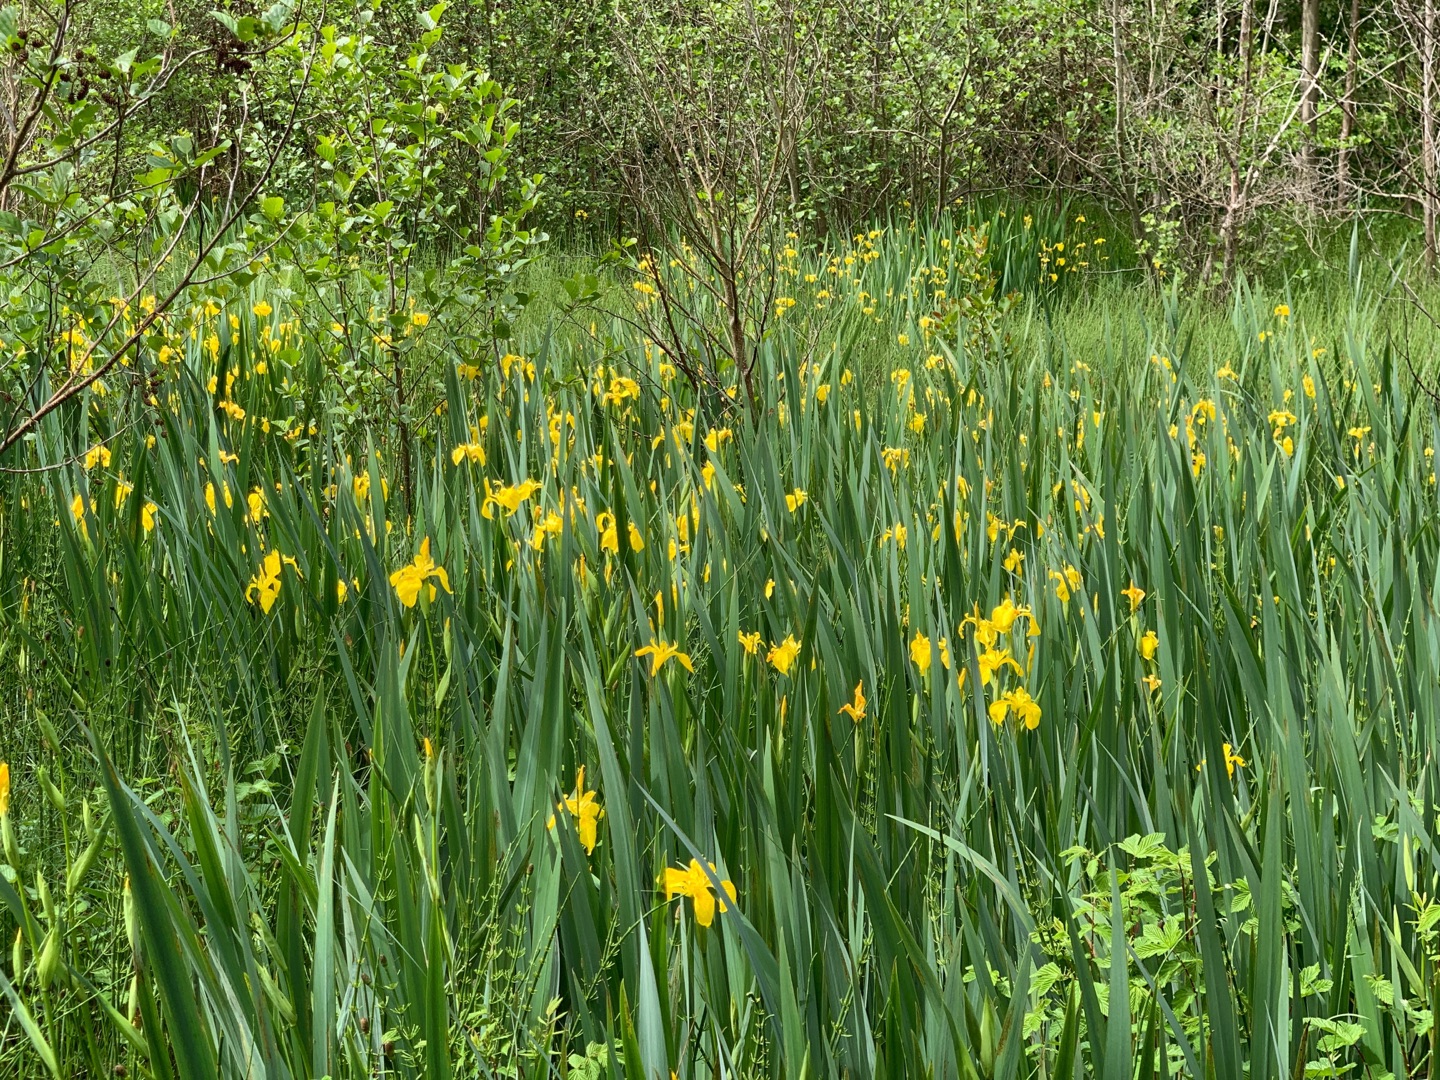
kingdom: Plantae
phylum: Tracheophyta
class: Liliopsida
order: Asparagales
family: Iridaceae
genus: Iris
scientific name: Iris pseudacorus
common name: Gul iris
